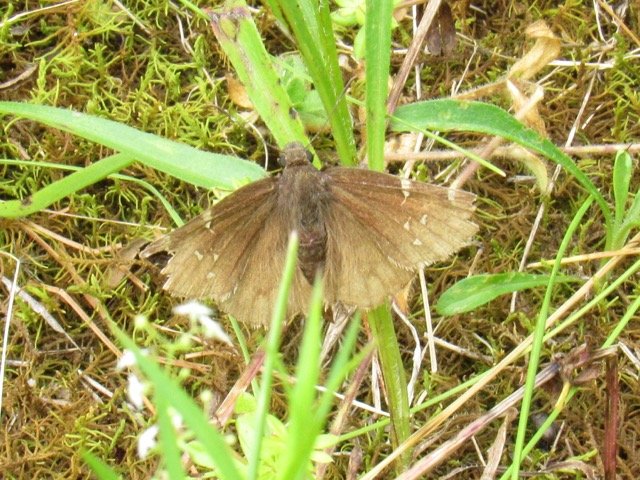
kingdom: Animalia
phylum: Arthropoda
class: Insecta
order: Lepidoptera
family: Hesperiidae
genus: Autochton
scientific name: Autochton
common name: Northern Cloudywing
